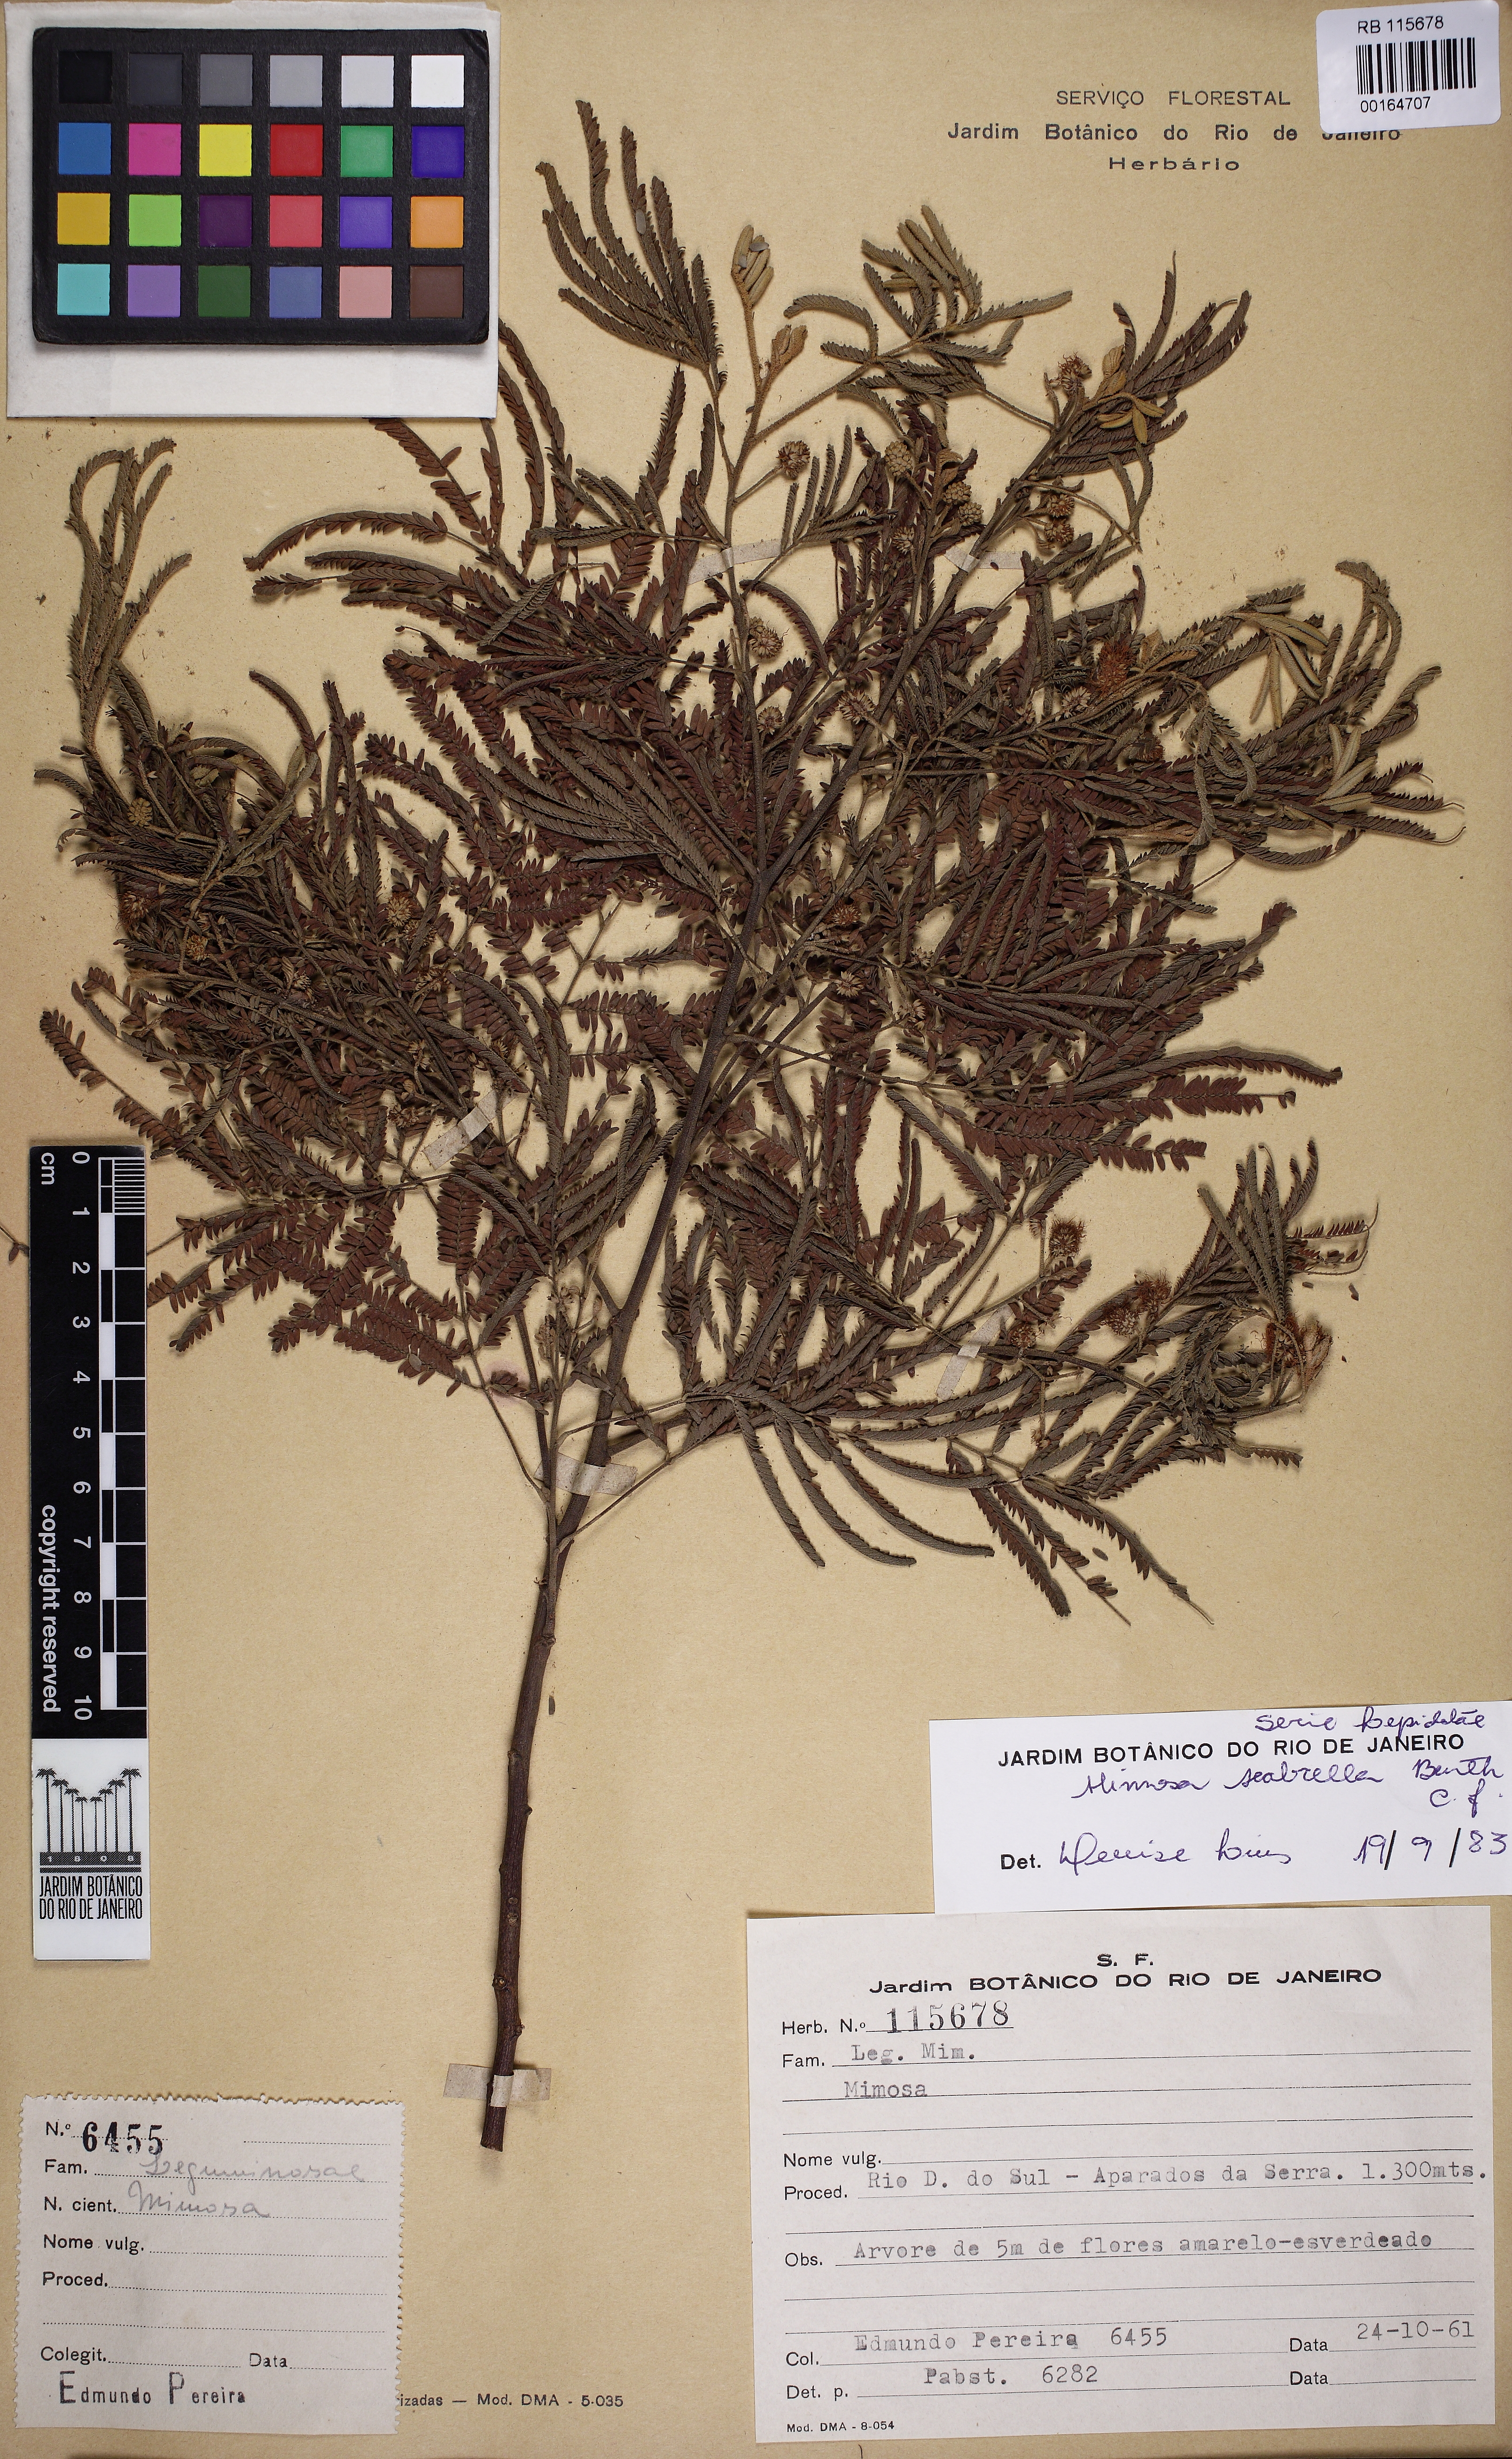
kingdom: Plantae
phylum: Tracheophyta
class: Magnoliopsida
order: Fabales
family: Fabaceae
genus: Mimosa
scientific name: Mimosa scabrella
